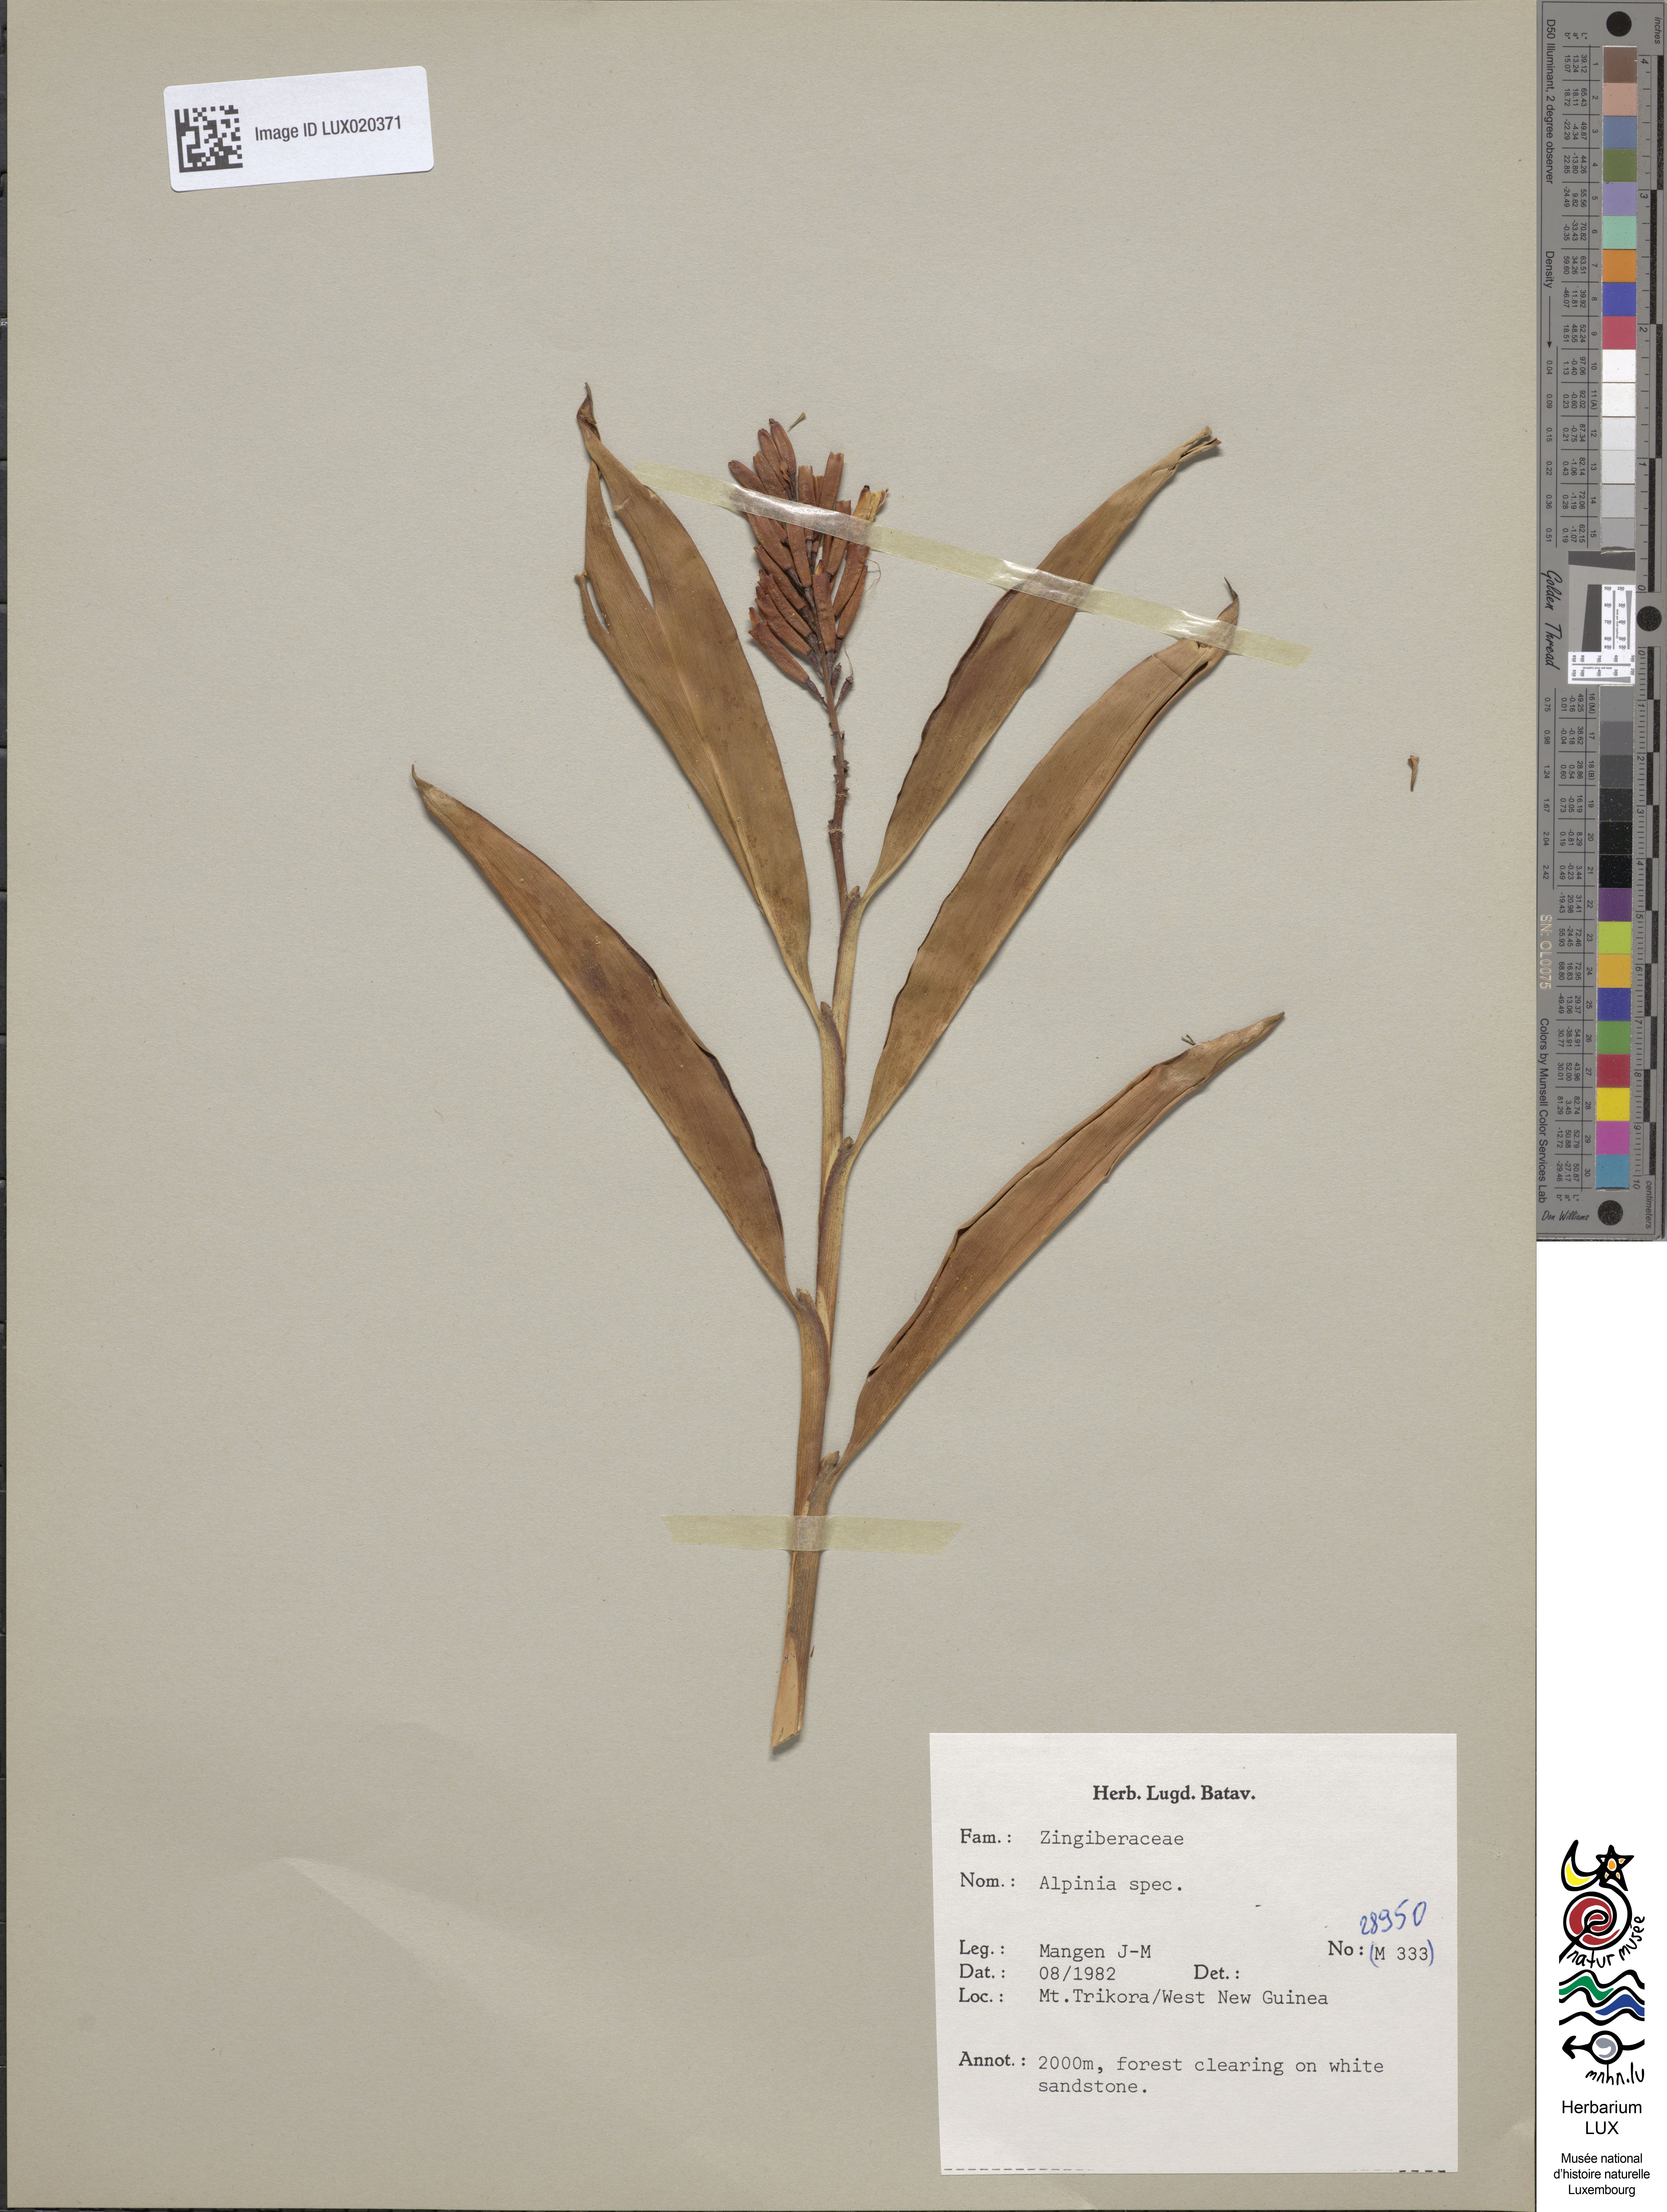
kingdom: Animalia
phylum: Arthropoda
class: Insecta
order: Coleoptera
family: Staphylinidae
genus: Alpinia
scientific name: Alpinia
